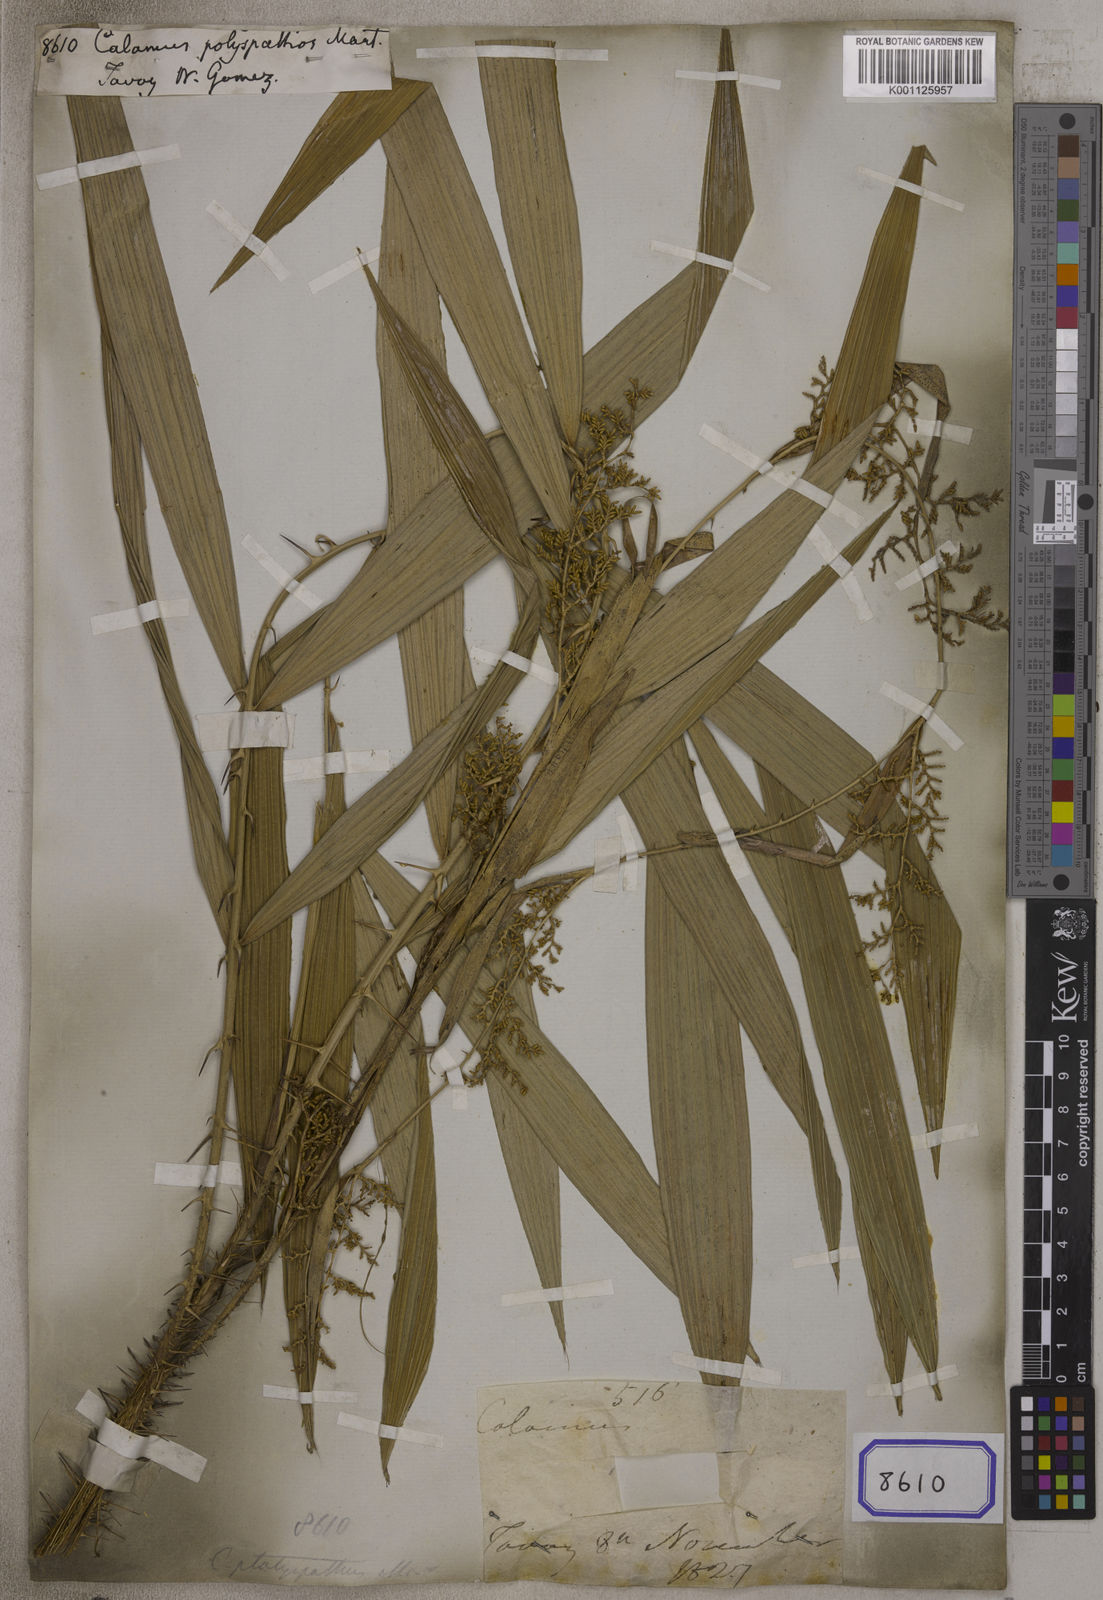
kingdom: Plantae
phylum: Tracheophyta
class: Liliopsida
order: Arecales
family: Arecaceae
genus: Calamus
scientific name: Calamus
